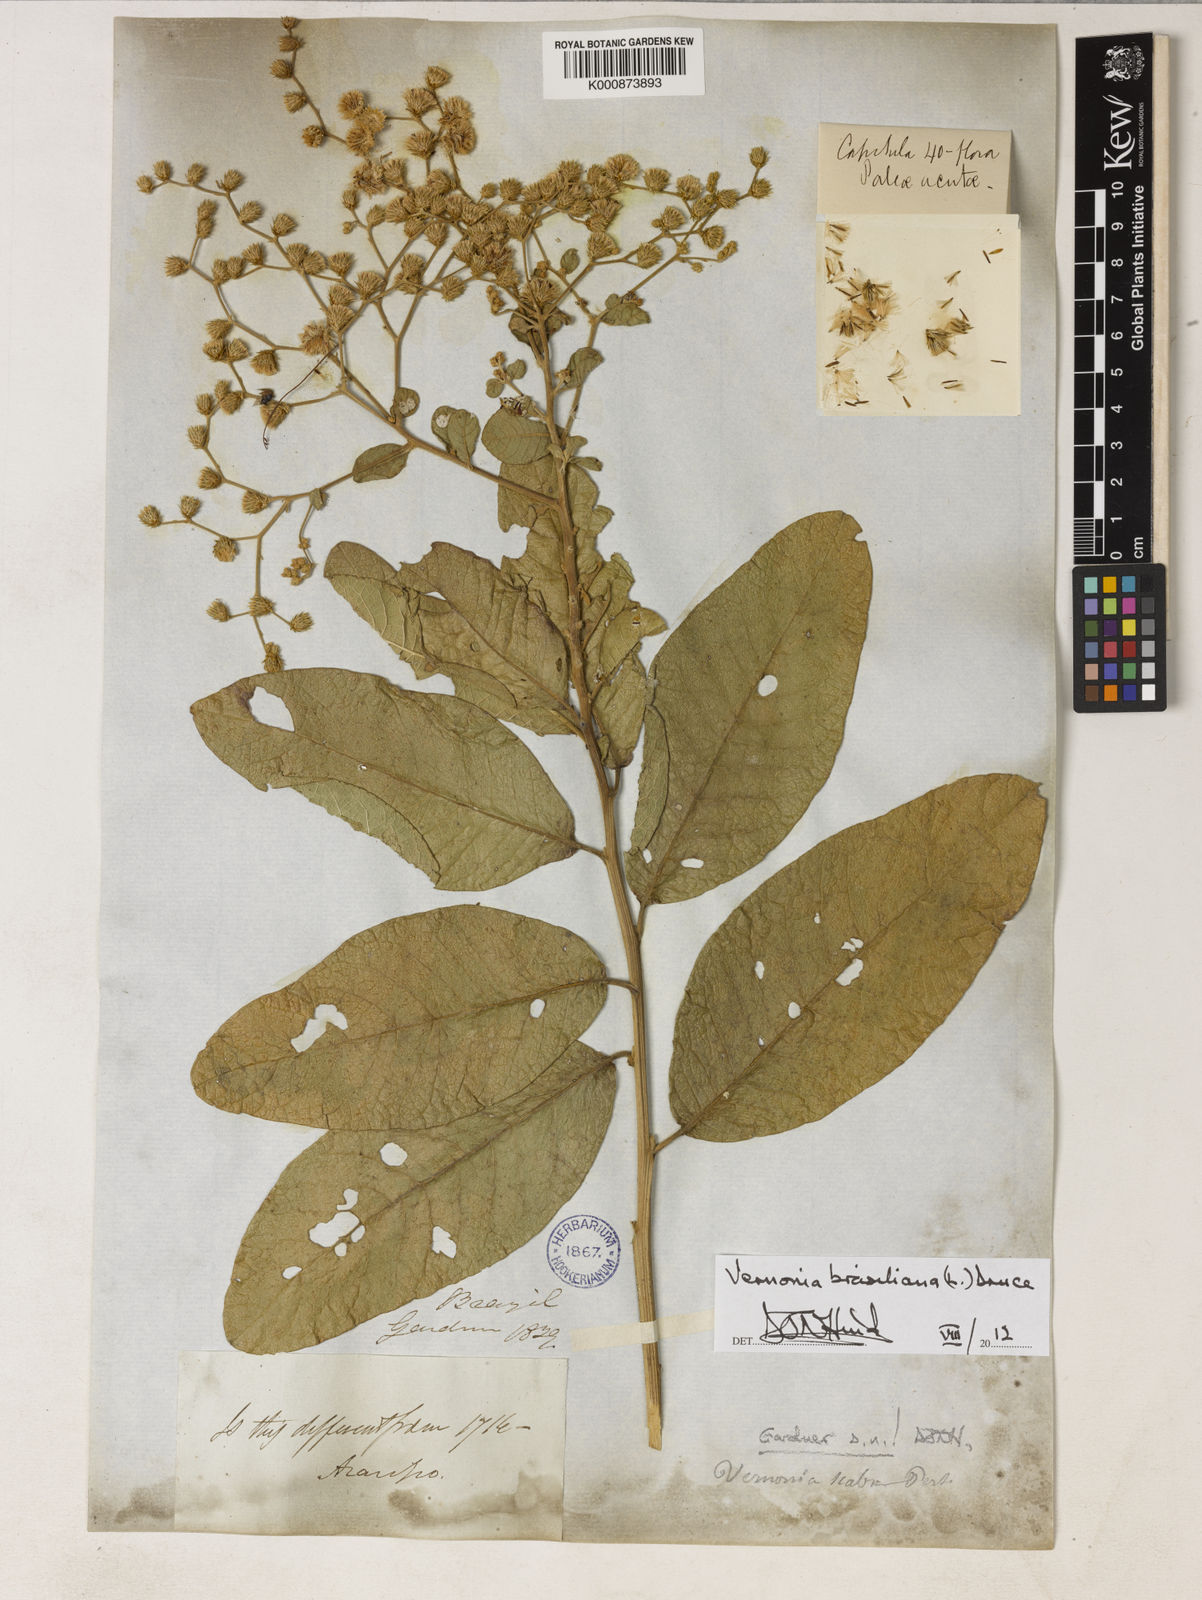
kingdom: Plantae
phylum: Tracheophyta
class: Magnoliopsida
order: Asterales
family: Asteraceae
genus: Vernonanthura
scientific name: Vernonanthura brasiliana
